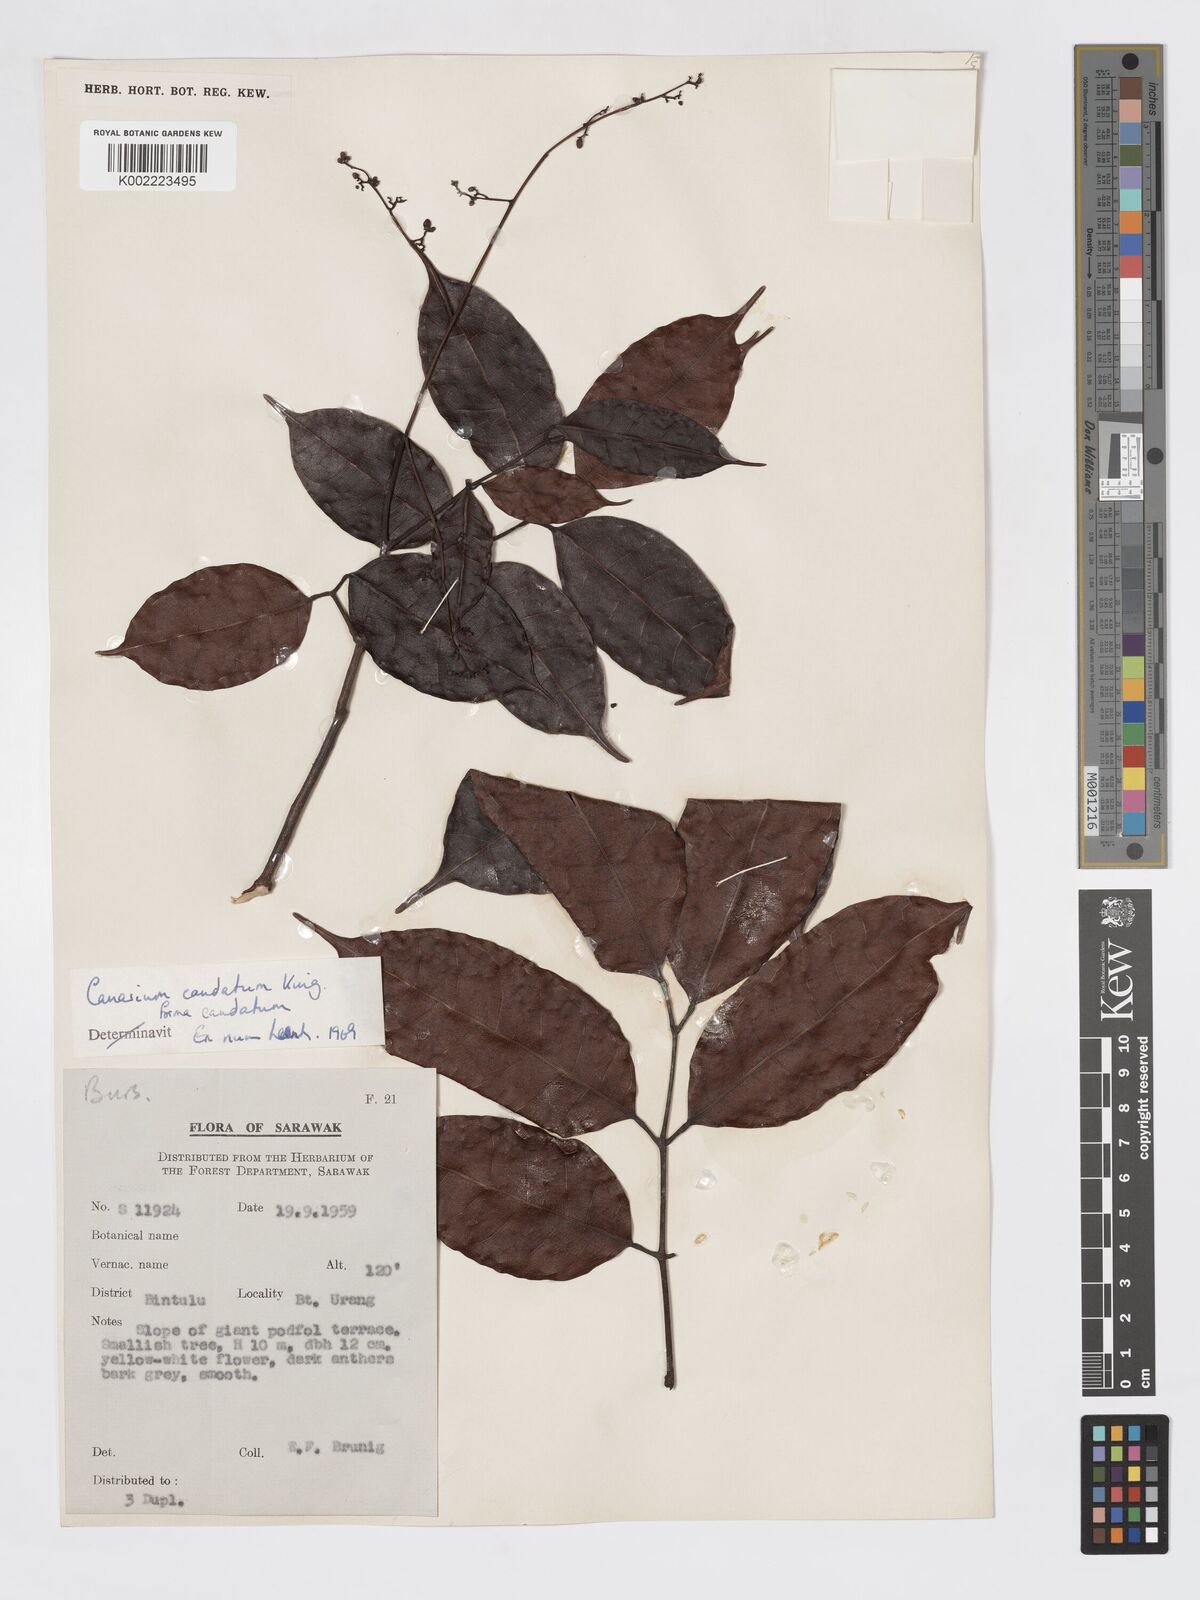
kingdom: Plantae
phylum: Tracheophyta
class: Magnoliopsida
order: Sapindales
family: Burseraceae
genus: Canarium
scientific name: Canarium caudatum
